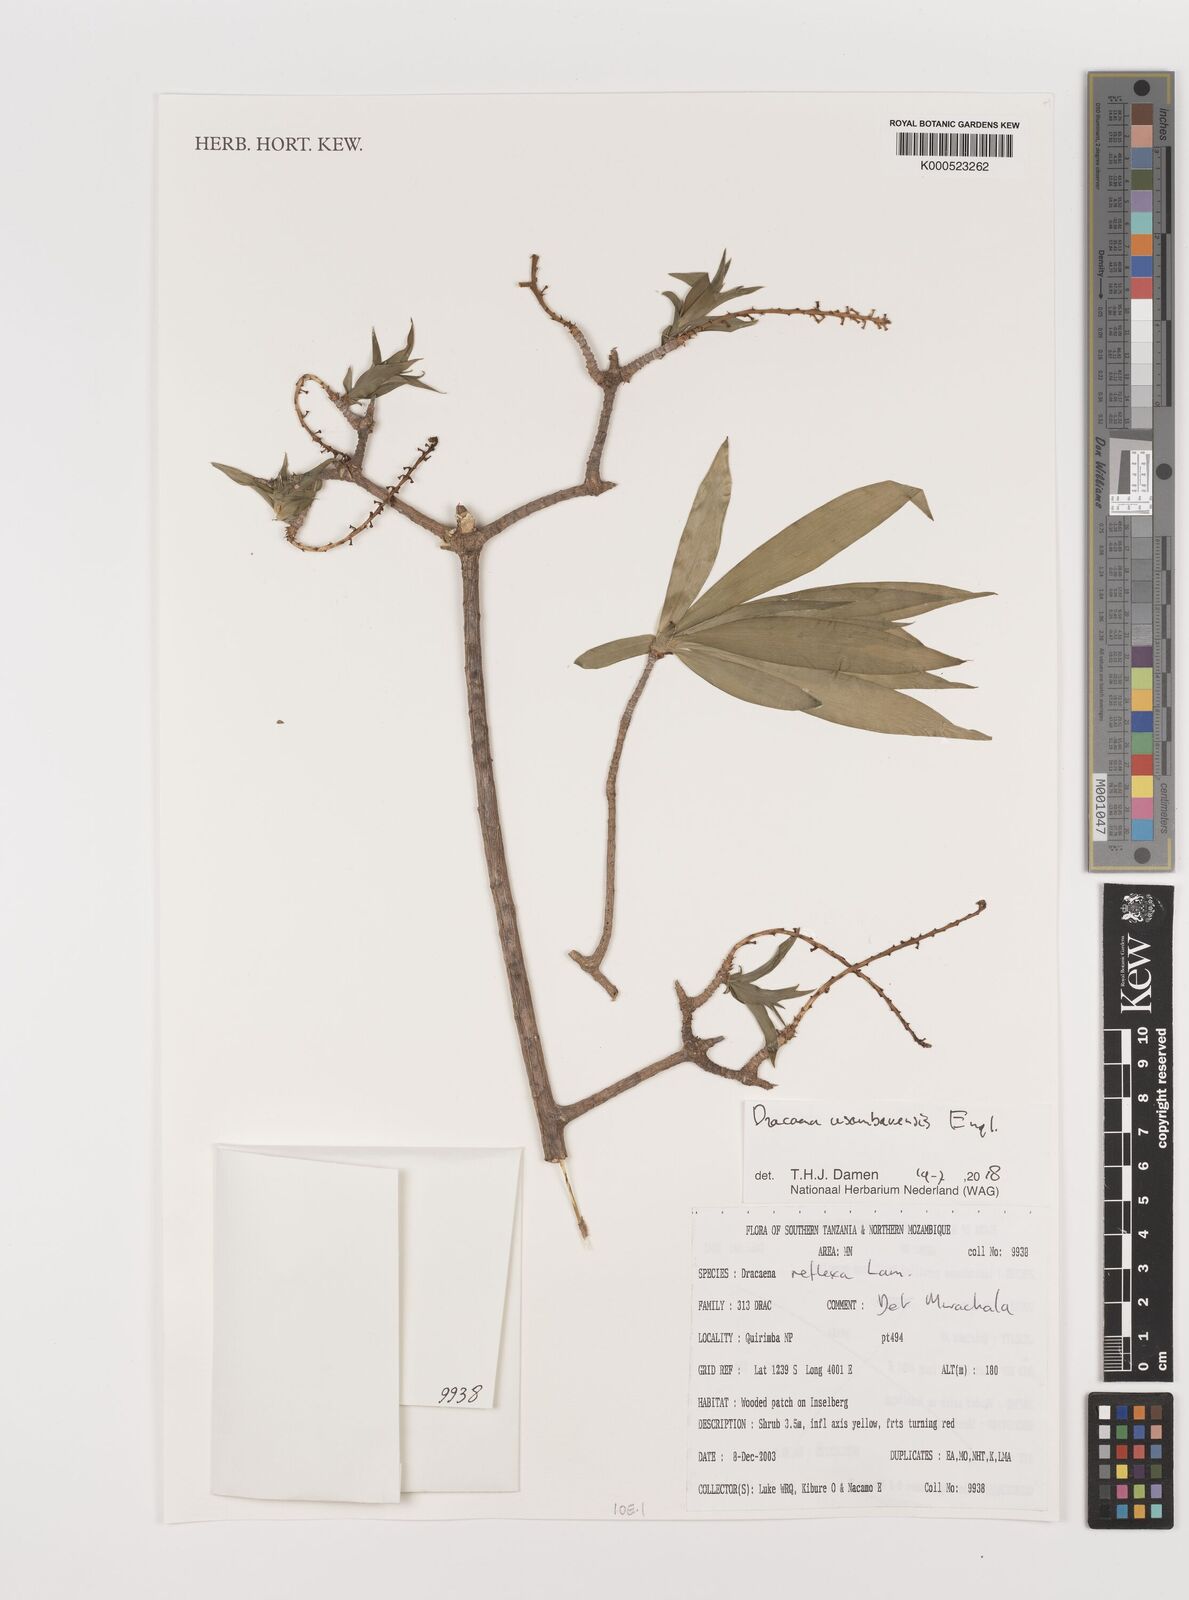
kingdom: Plantae
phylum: Tracheophyta
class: Liliopsida
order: Asparagales
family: Asparagaceae
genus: Dracaena
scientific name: Dracaena usambarensis
